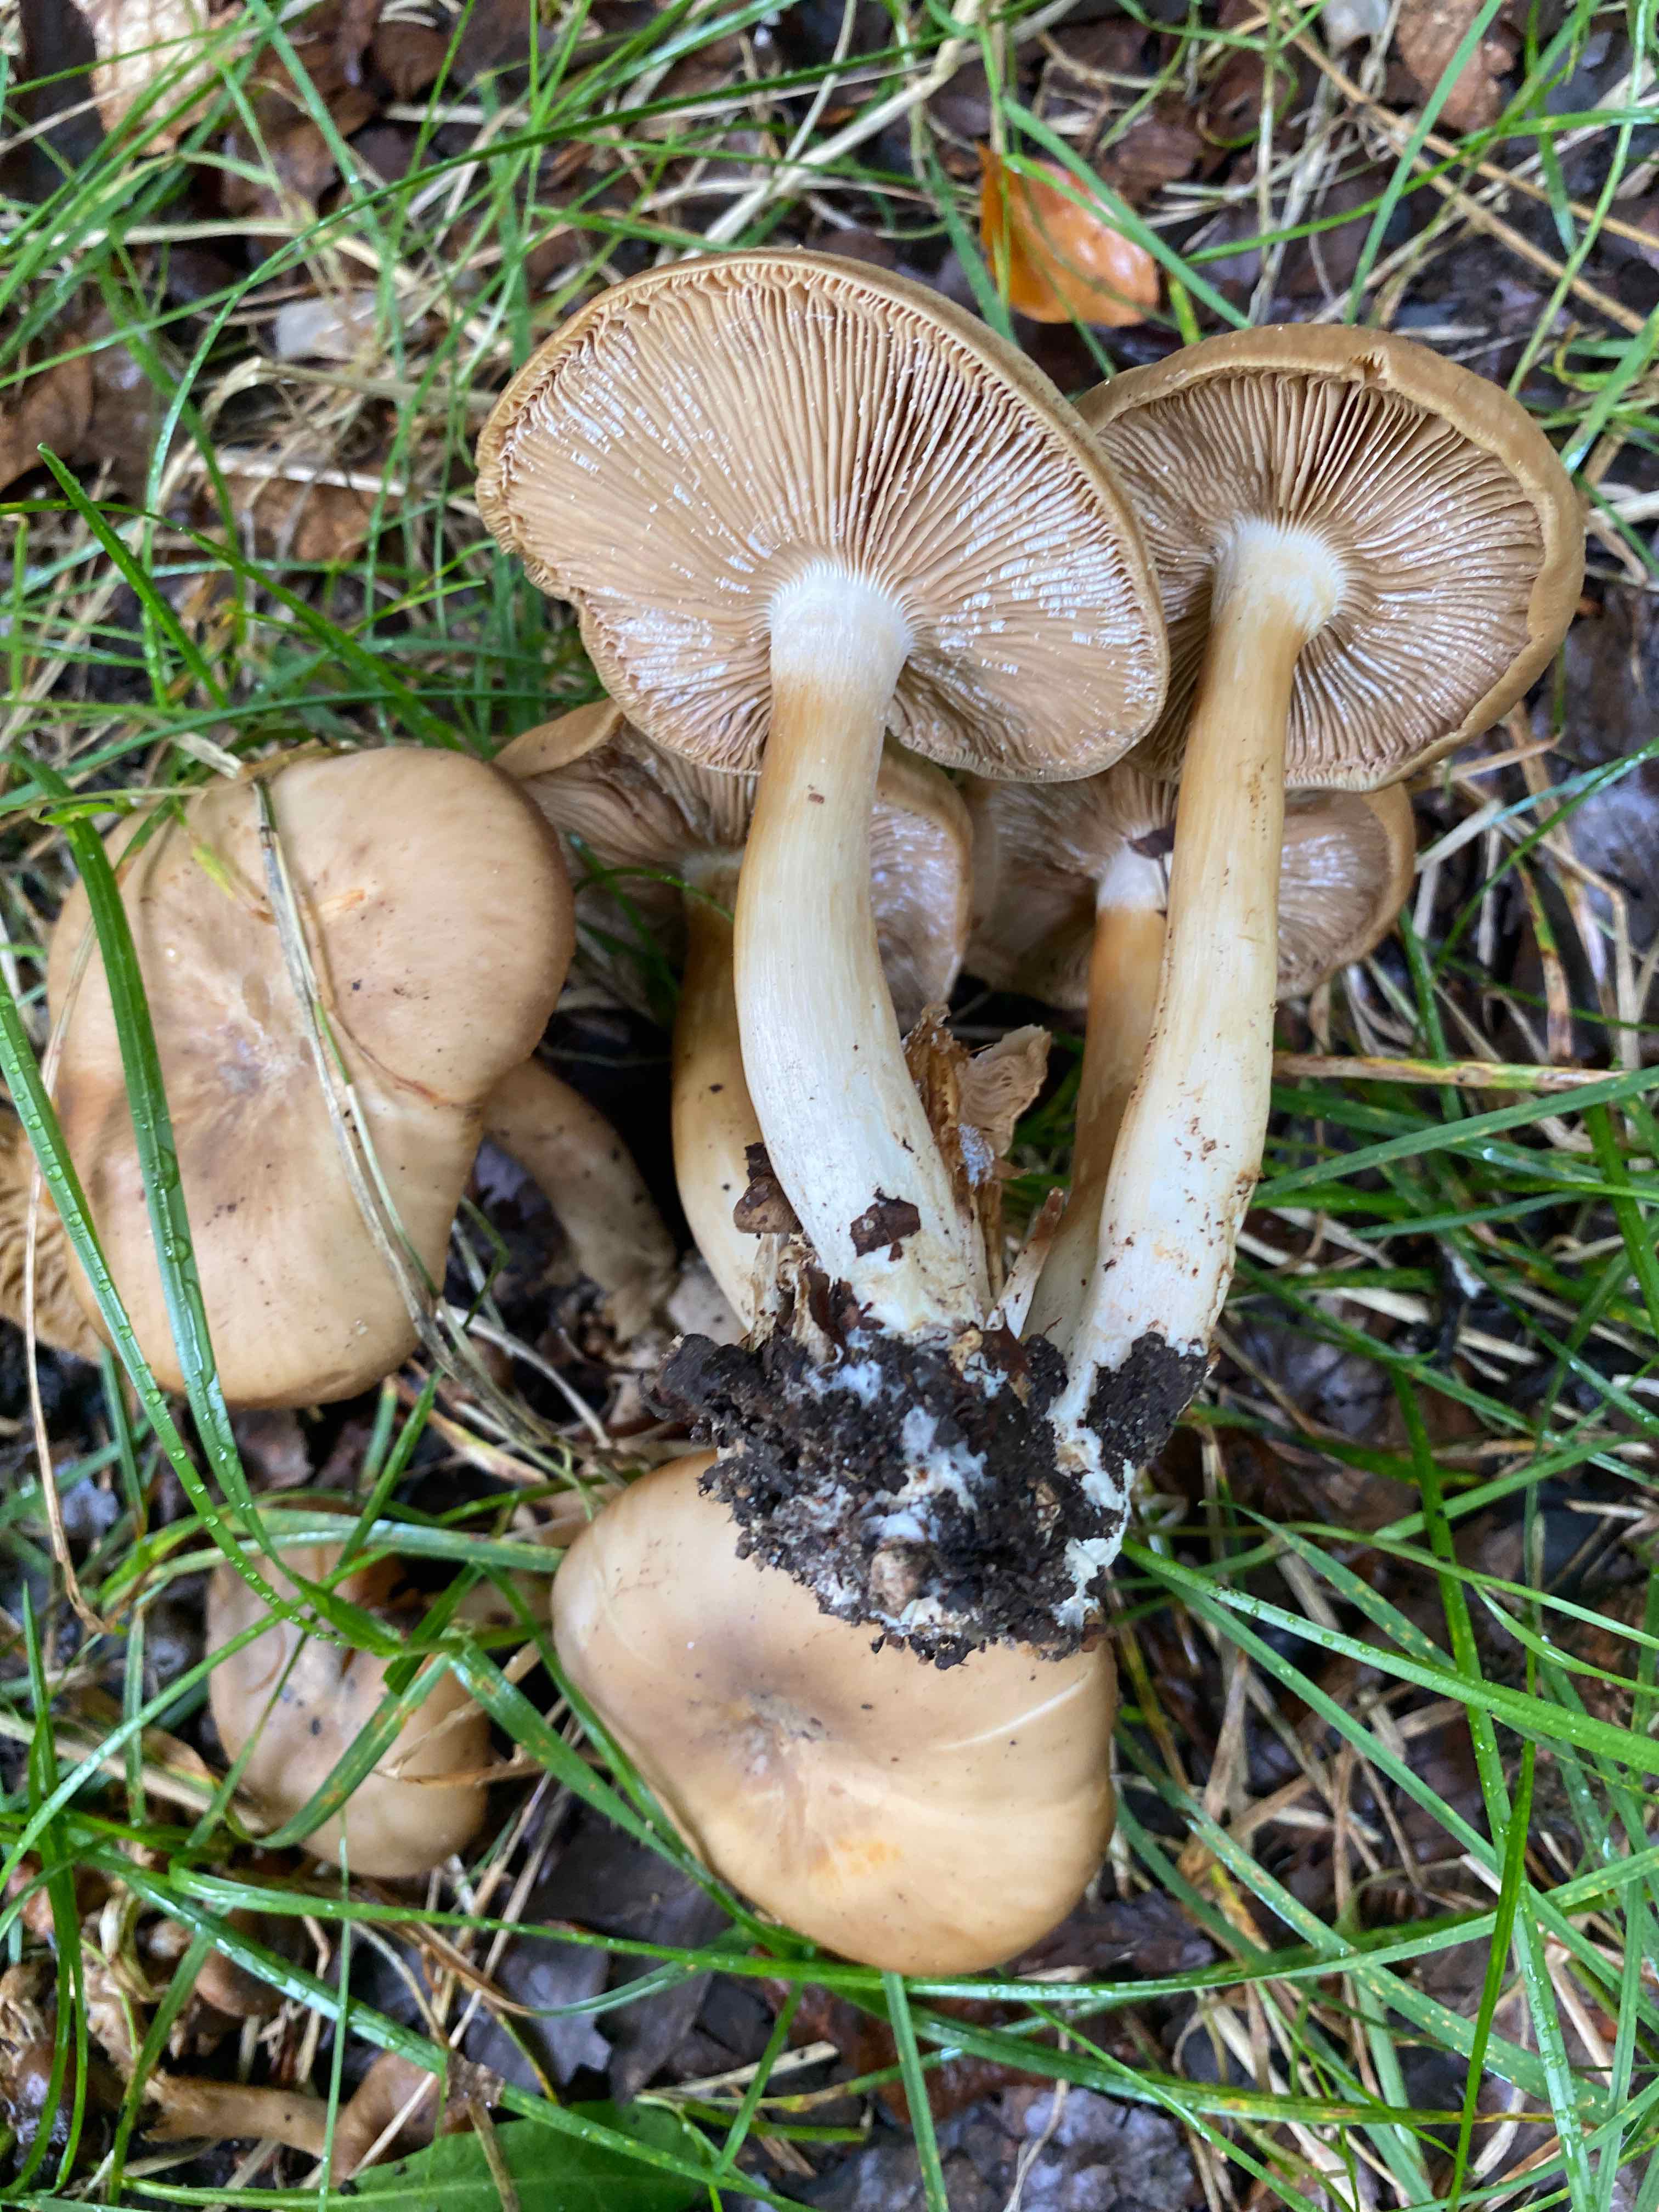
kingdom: Fungi
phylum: Basidiomycota
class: Agaricomycetes
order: Agaricales
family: Lyophyllaceae
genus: Lyophyllum
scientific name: Lyophyllum
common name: gråblad
